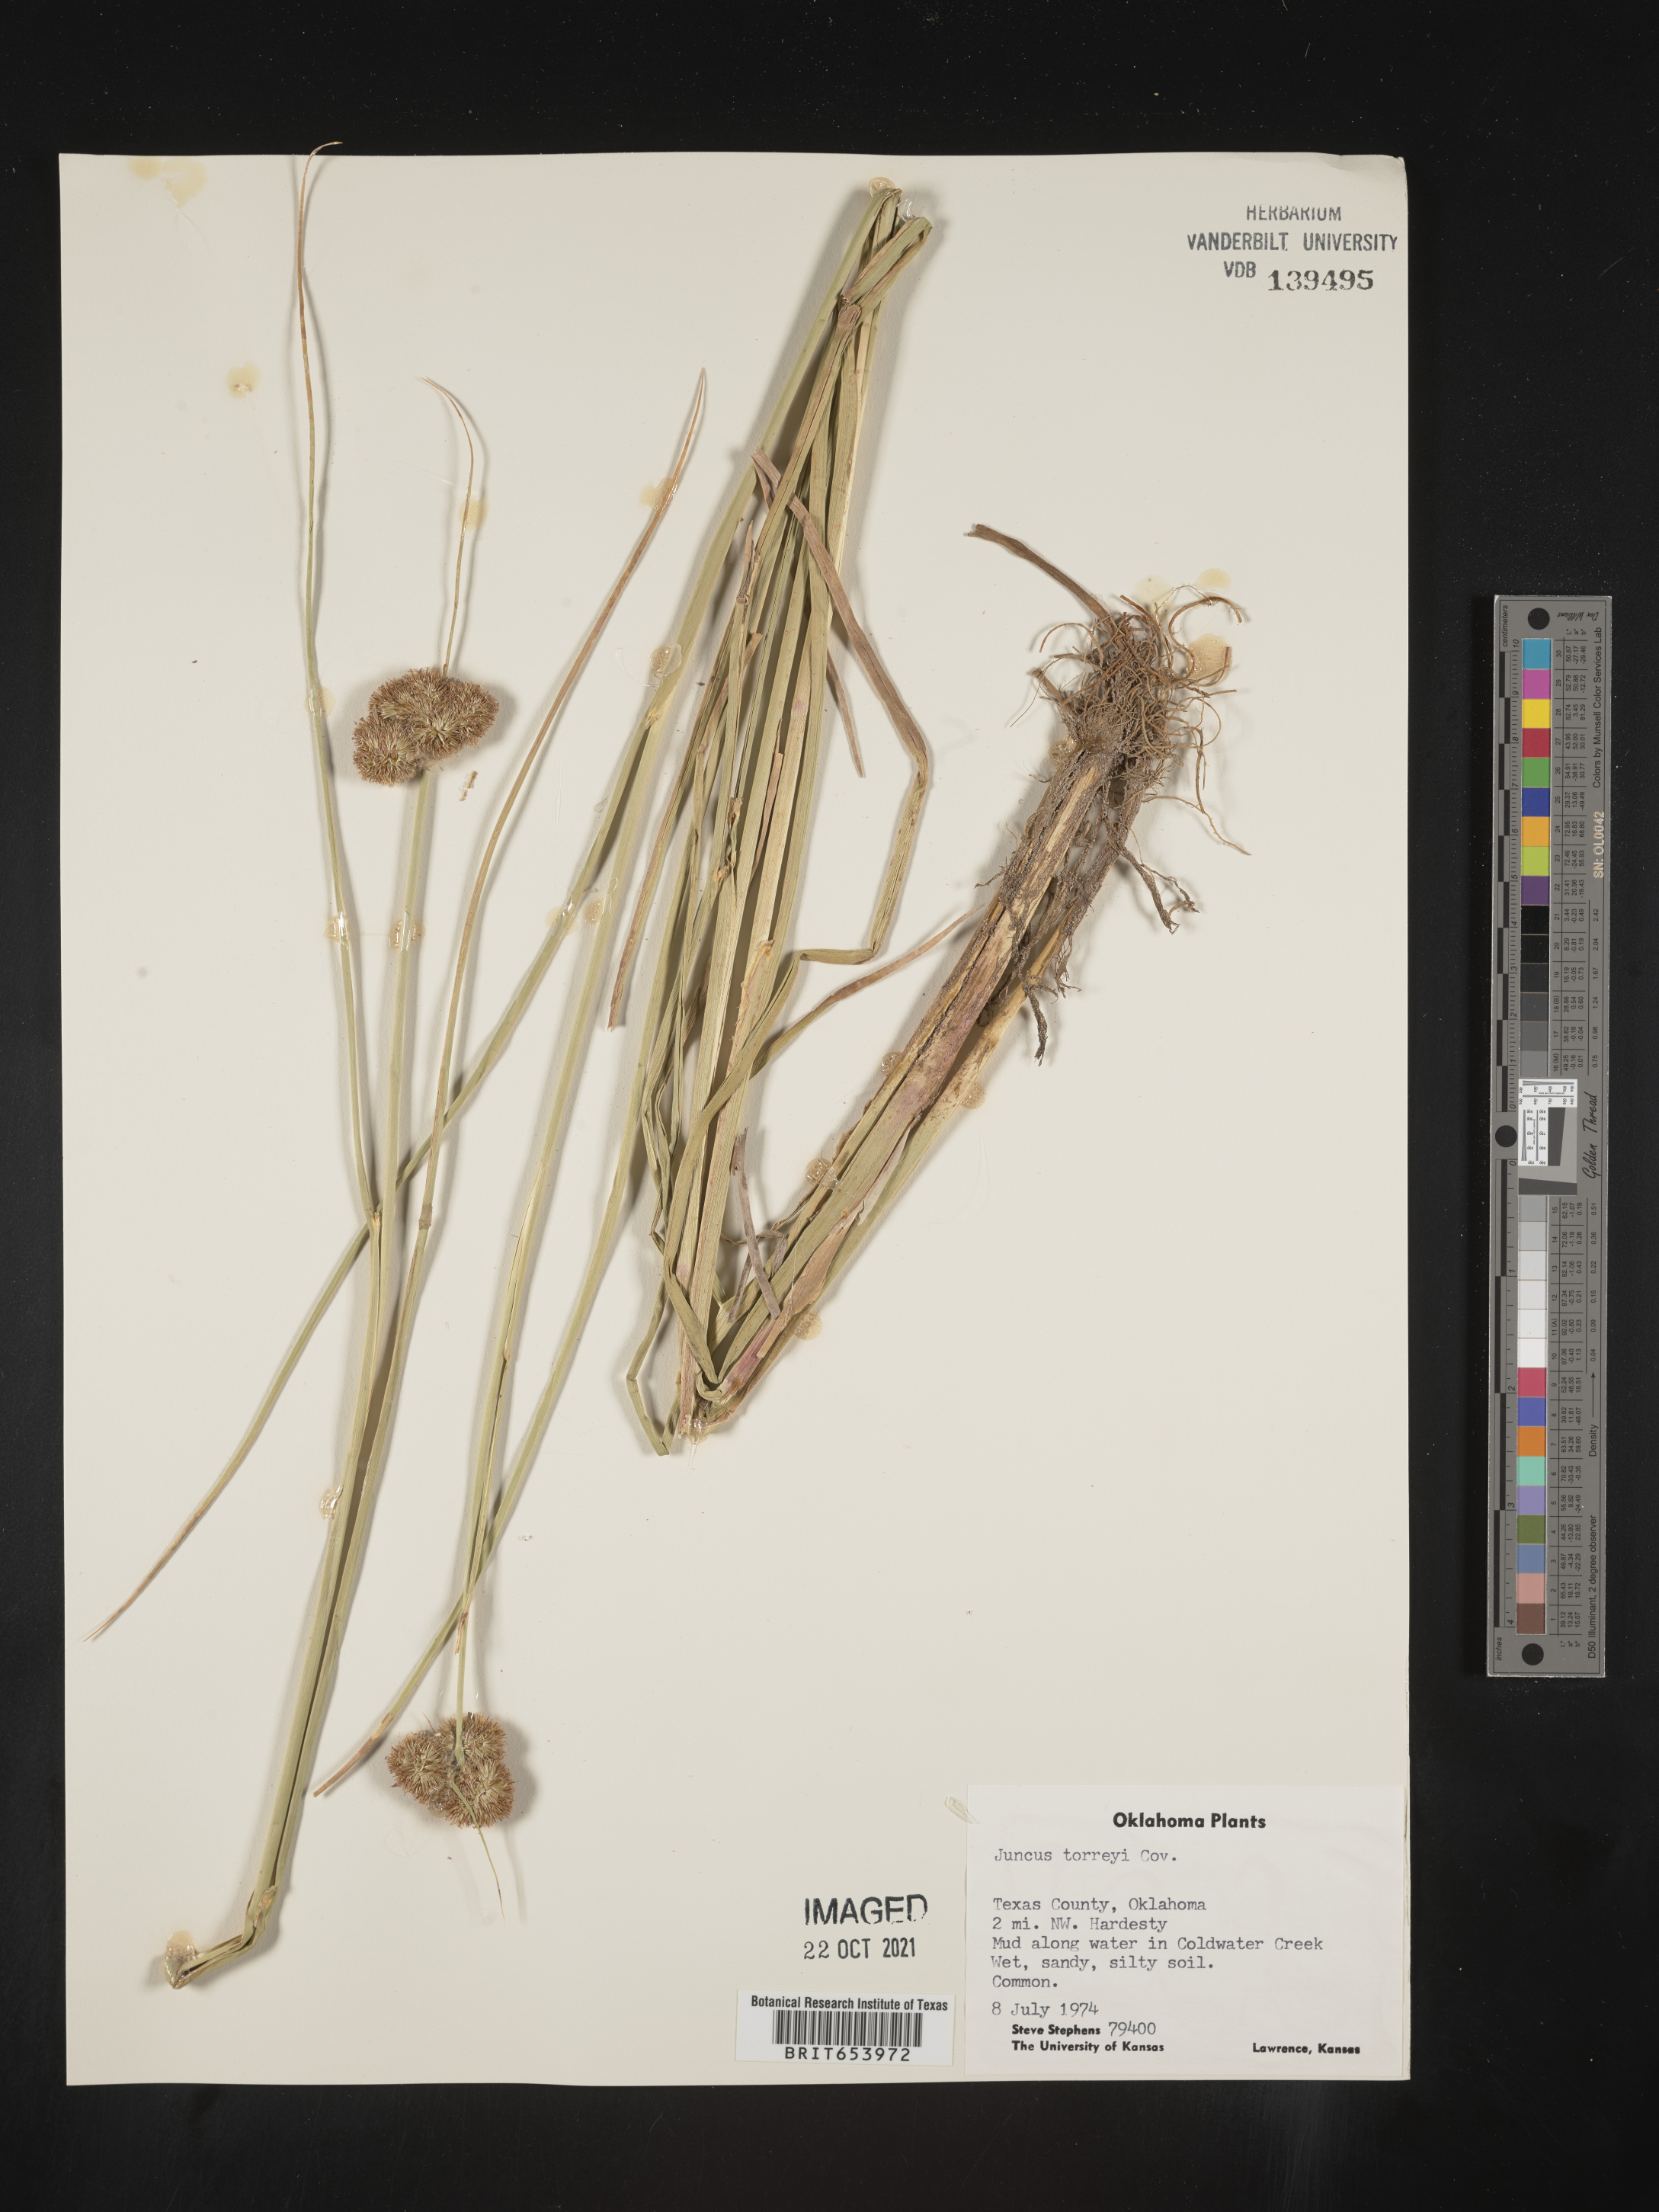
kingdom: Plantae
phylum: Tracheophyta
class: Liliopsida
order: Poales
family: Juncaceae
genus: Juncus
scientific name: Juncus torreyi
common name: Torrey's rush
